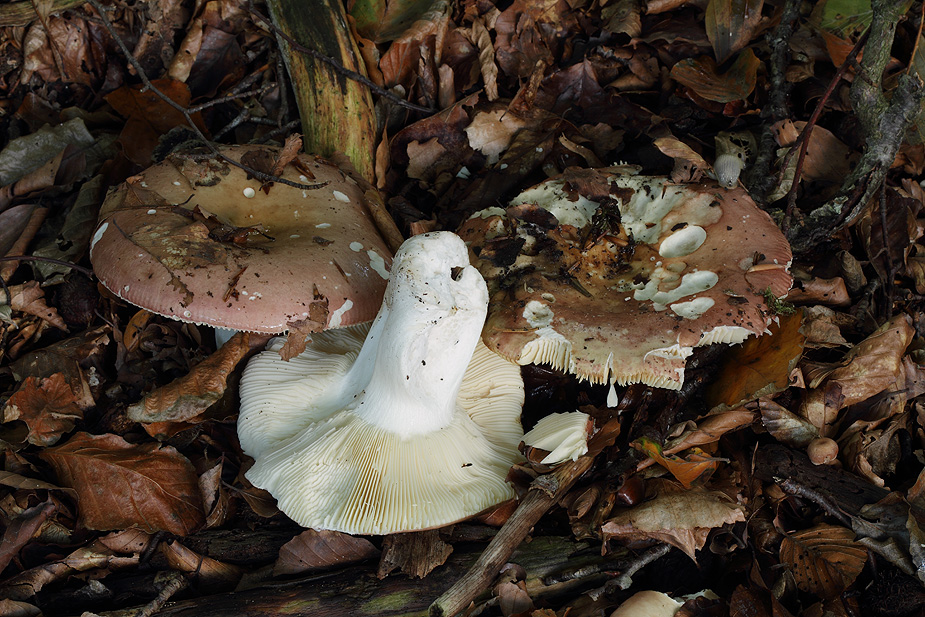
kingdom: Fungi
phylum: Basidiomycota
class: Agaricomycetes
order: Russulales
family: Russulaceae
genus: Russula
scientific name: Russula curtipes
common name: kortstokket skørhat
